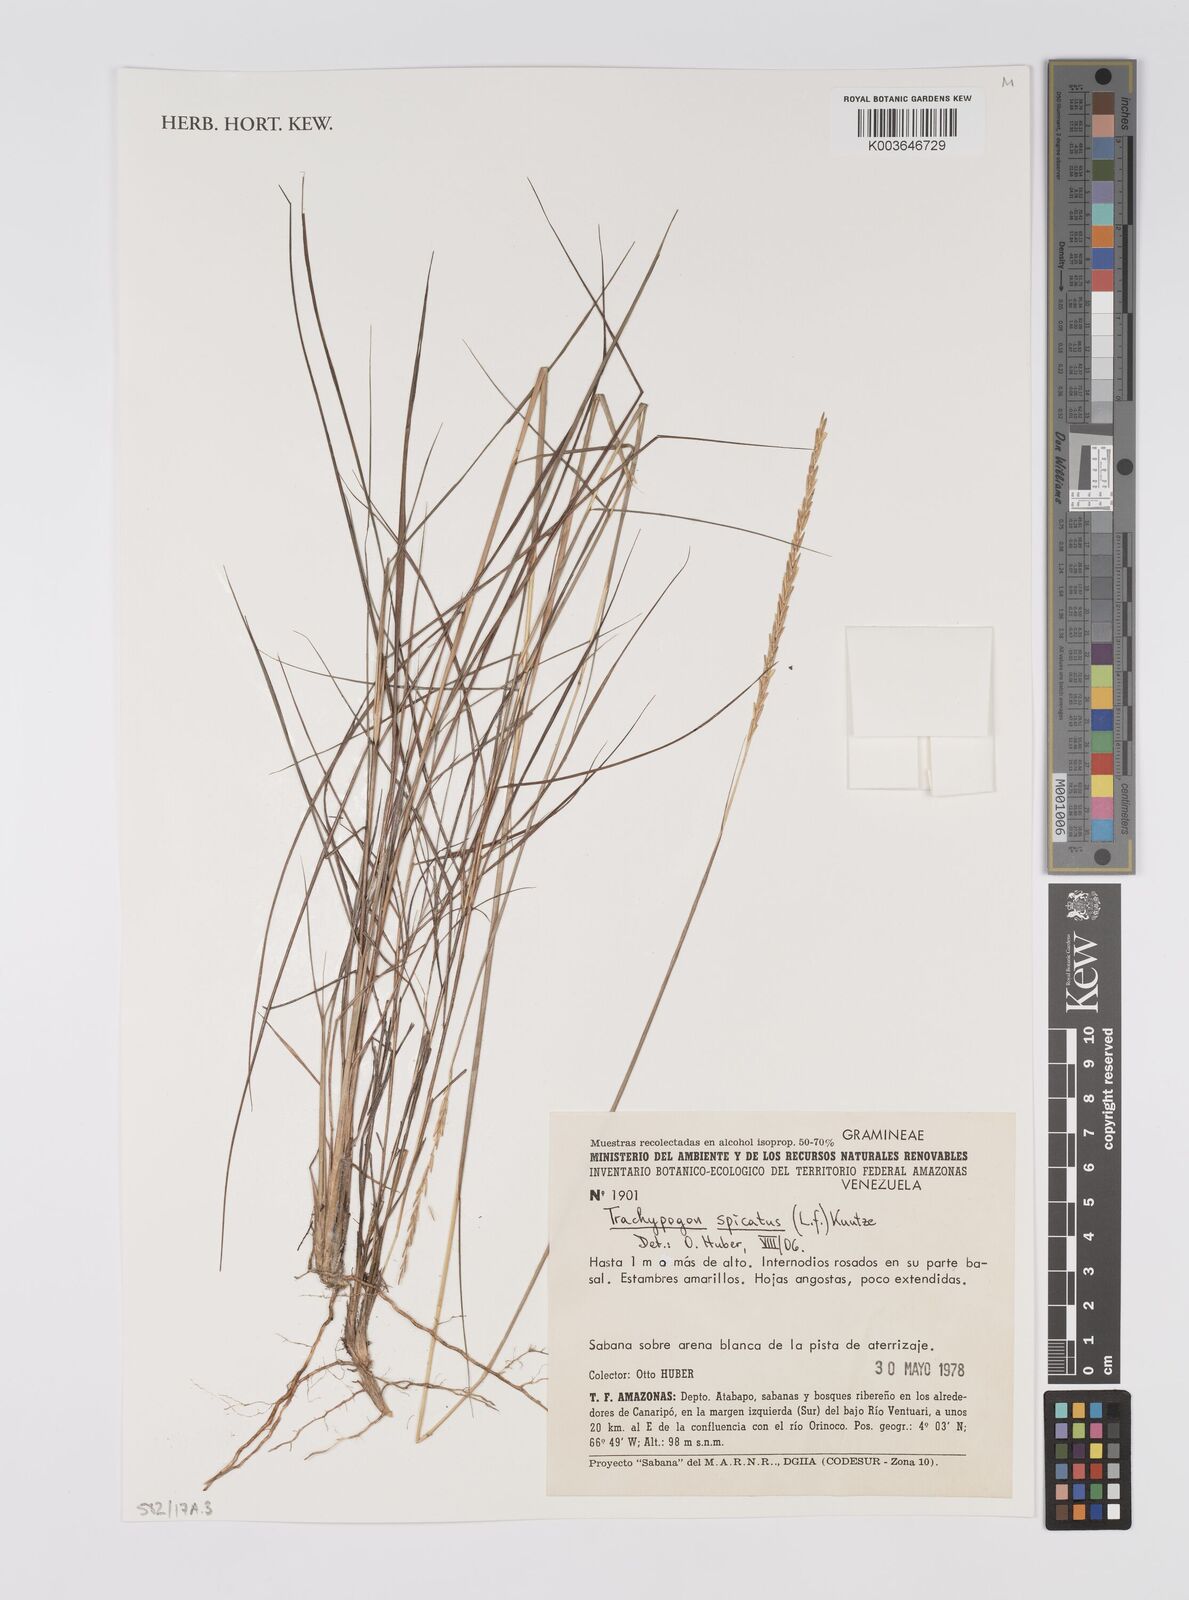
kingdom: Plantae
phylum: Tracheophyta
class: Liliopsida
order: Poales
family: Poaceae
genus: Trachypogon
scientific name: Trachypogon spicatus
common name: Crinkle-awn
